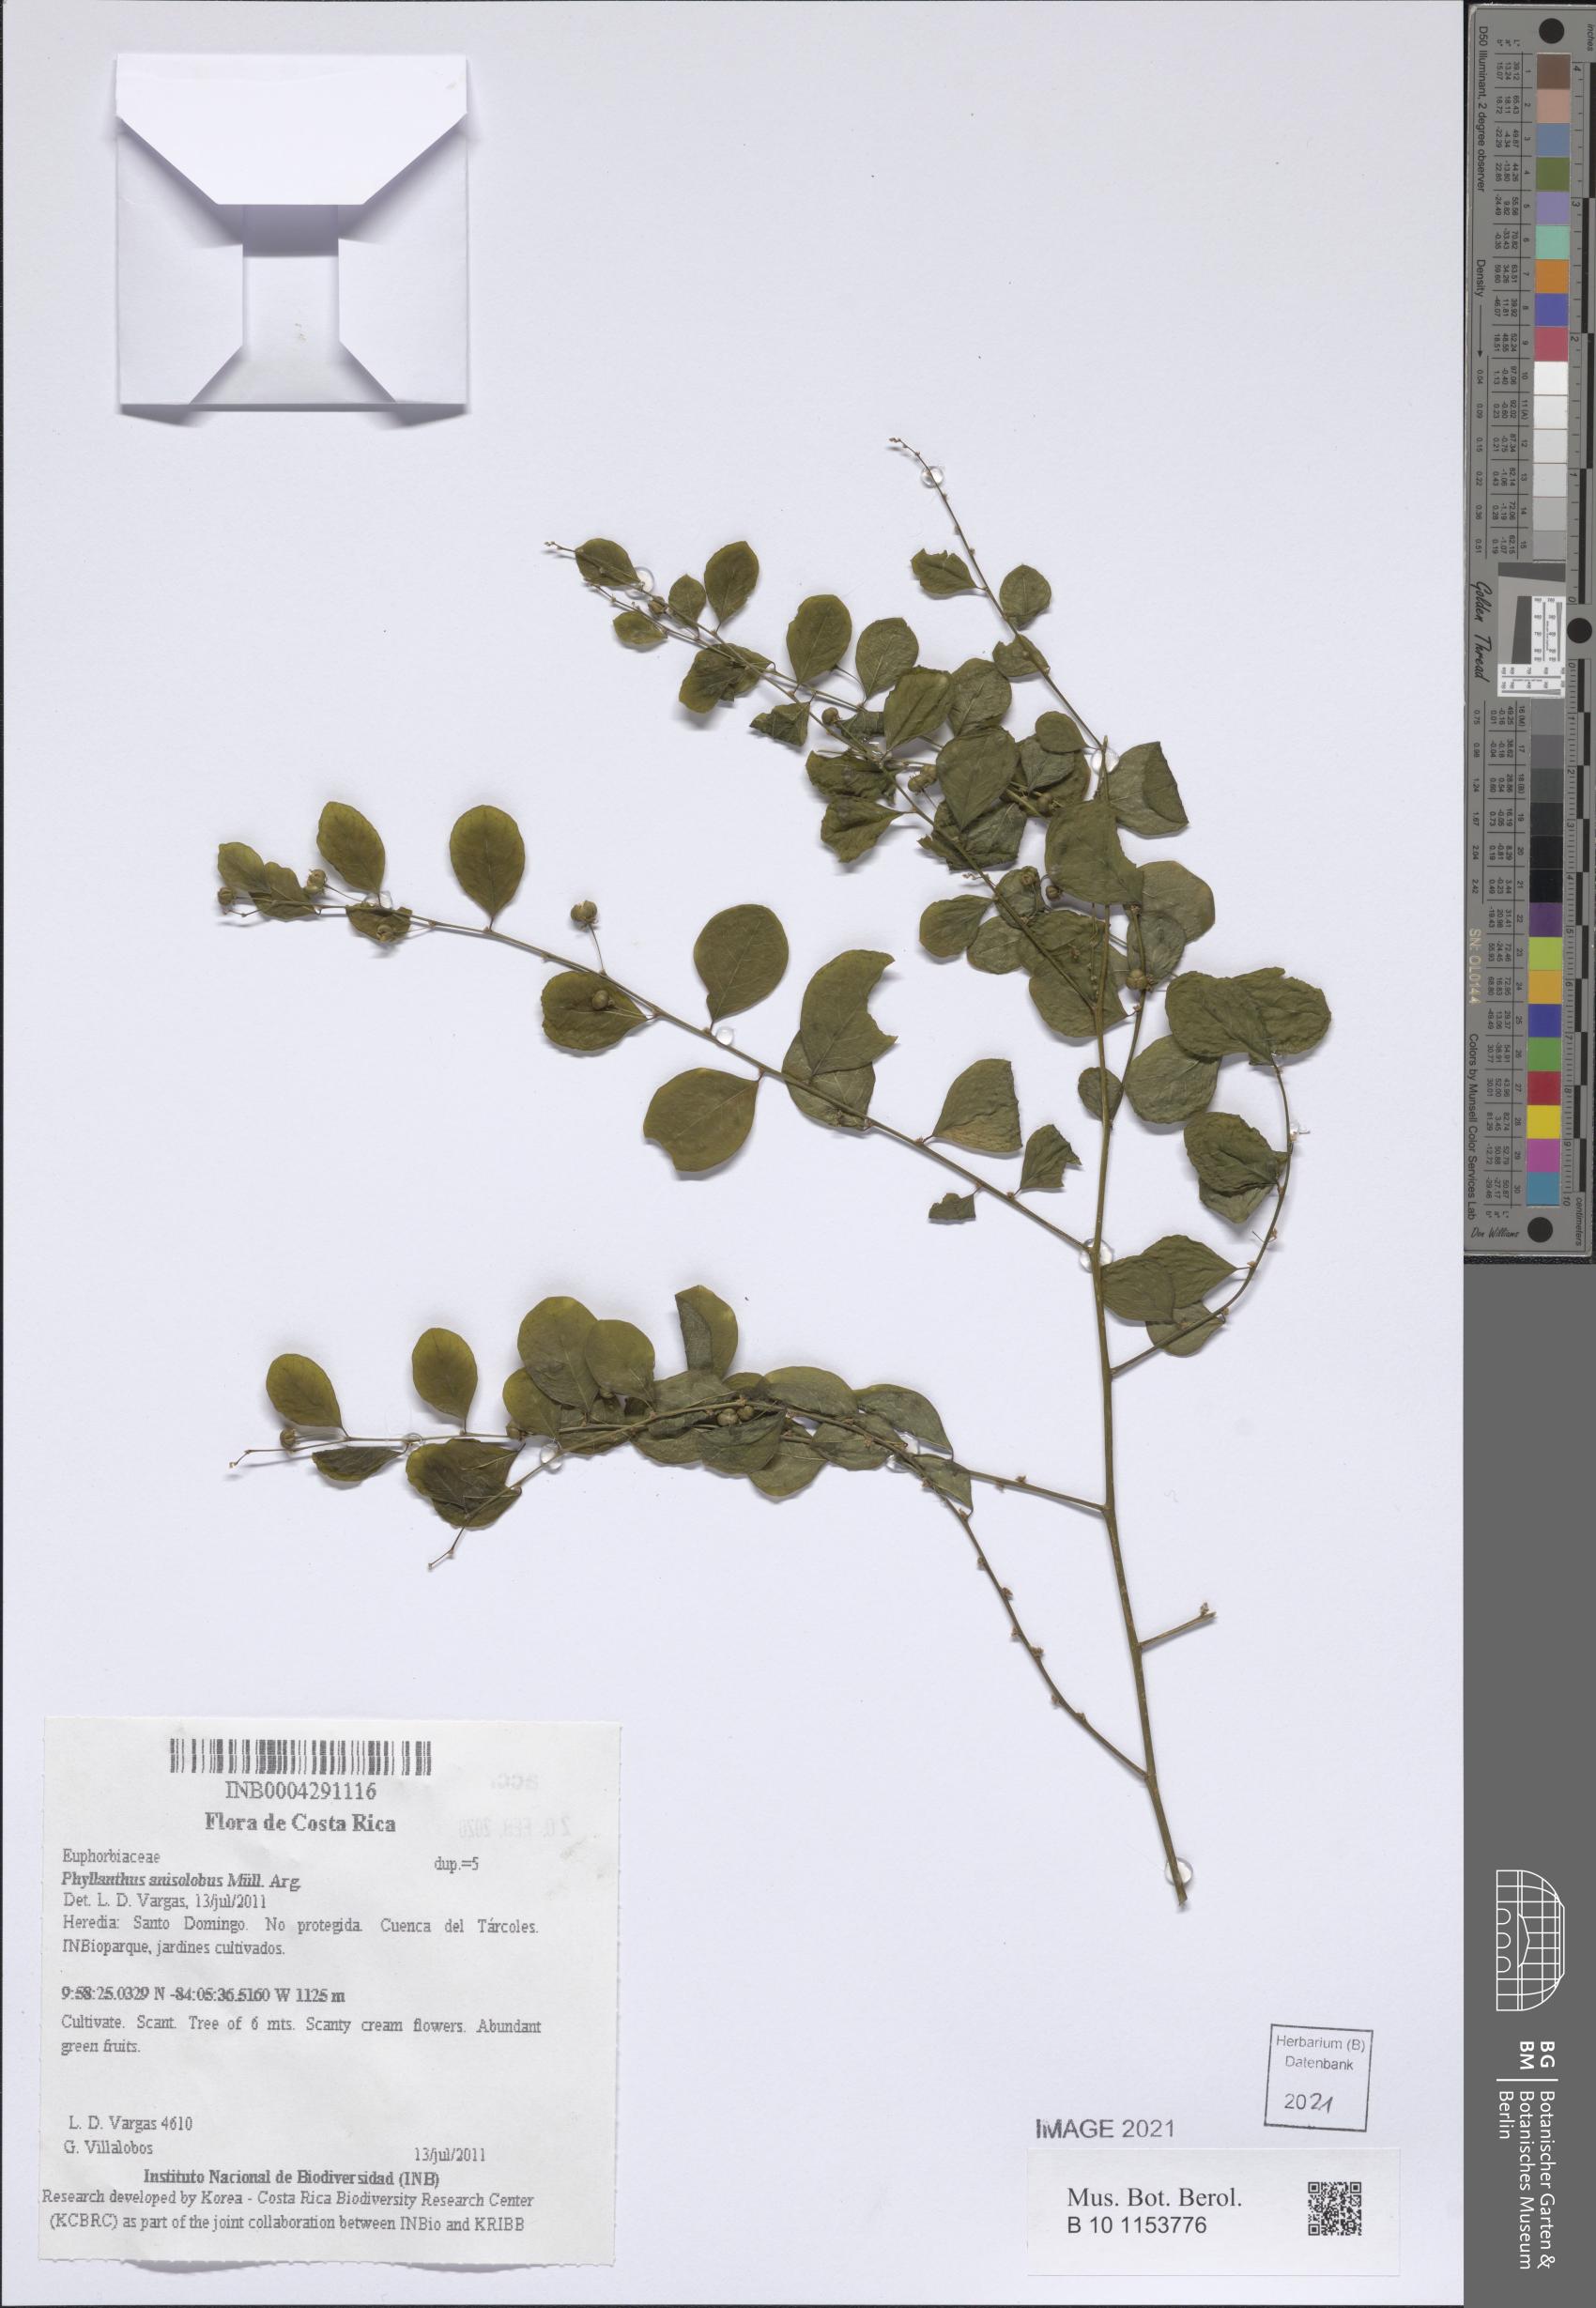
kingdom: Plantae
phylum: Tracheophyta
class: Magnoliopsida
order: Malpighiales
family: Phyllanthaceae
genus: Phyllanthus
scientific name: Phyllanthus anisolobus
